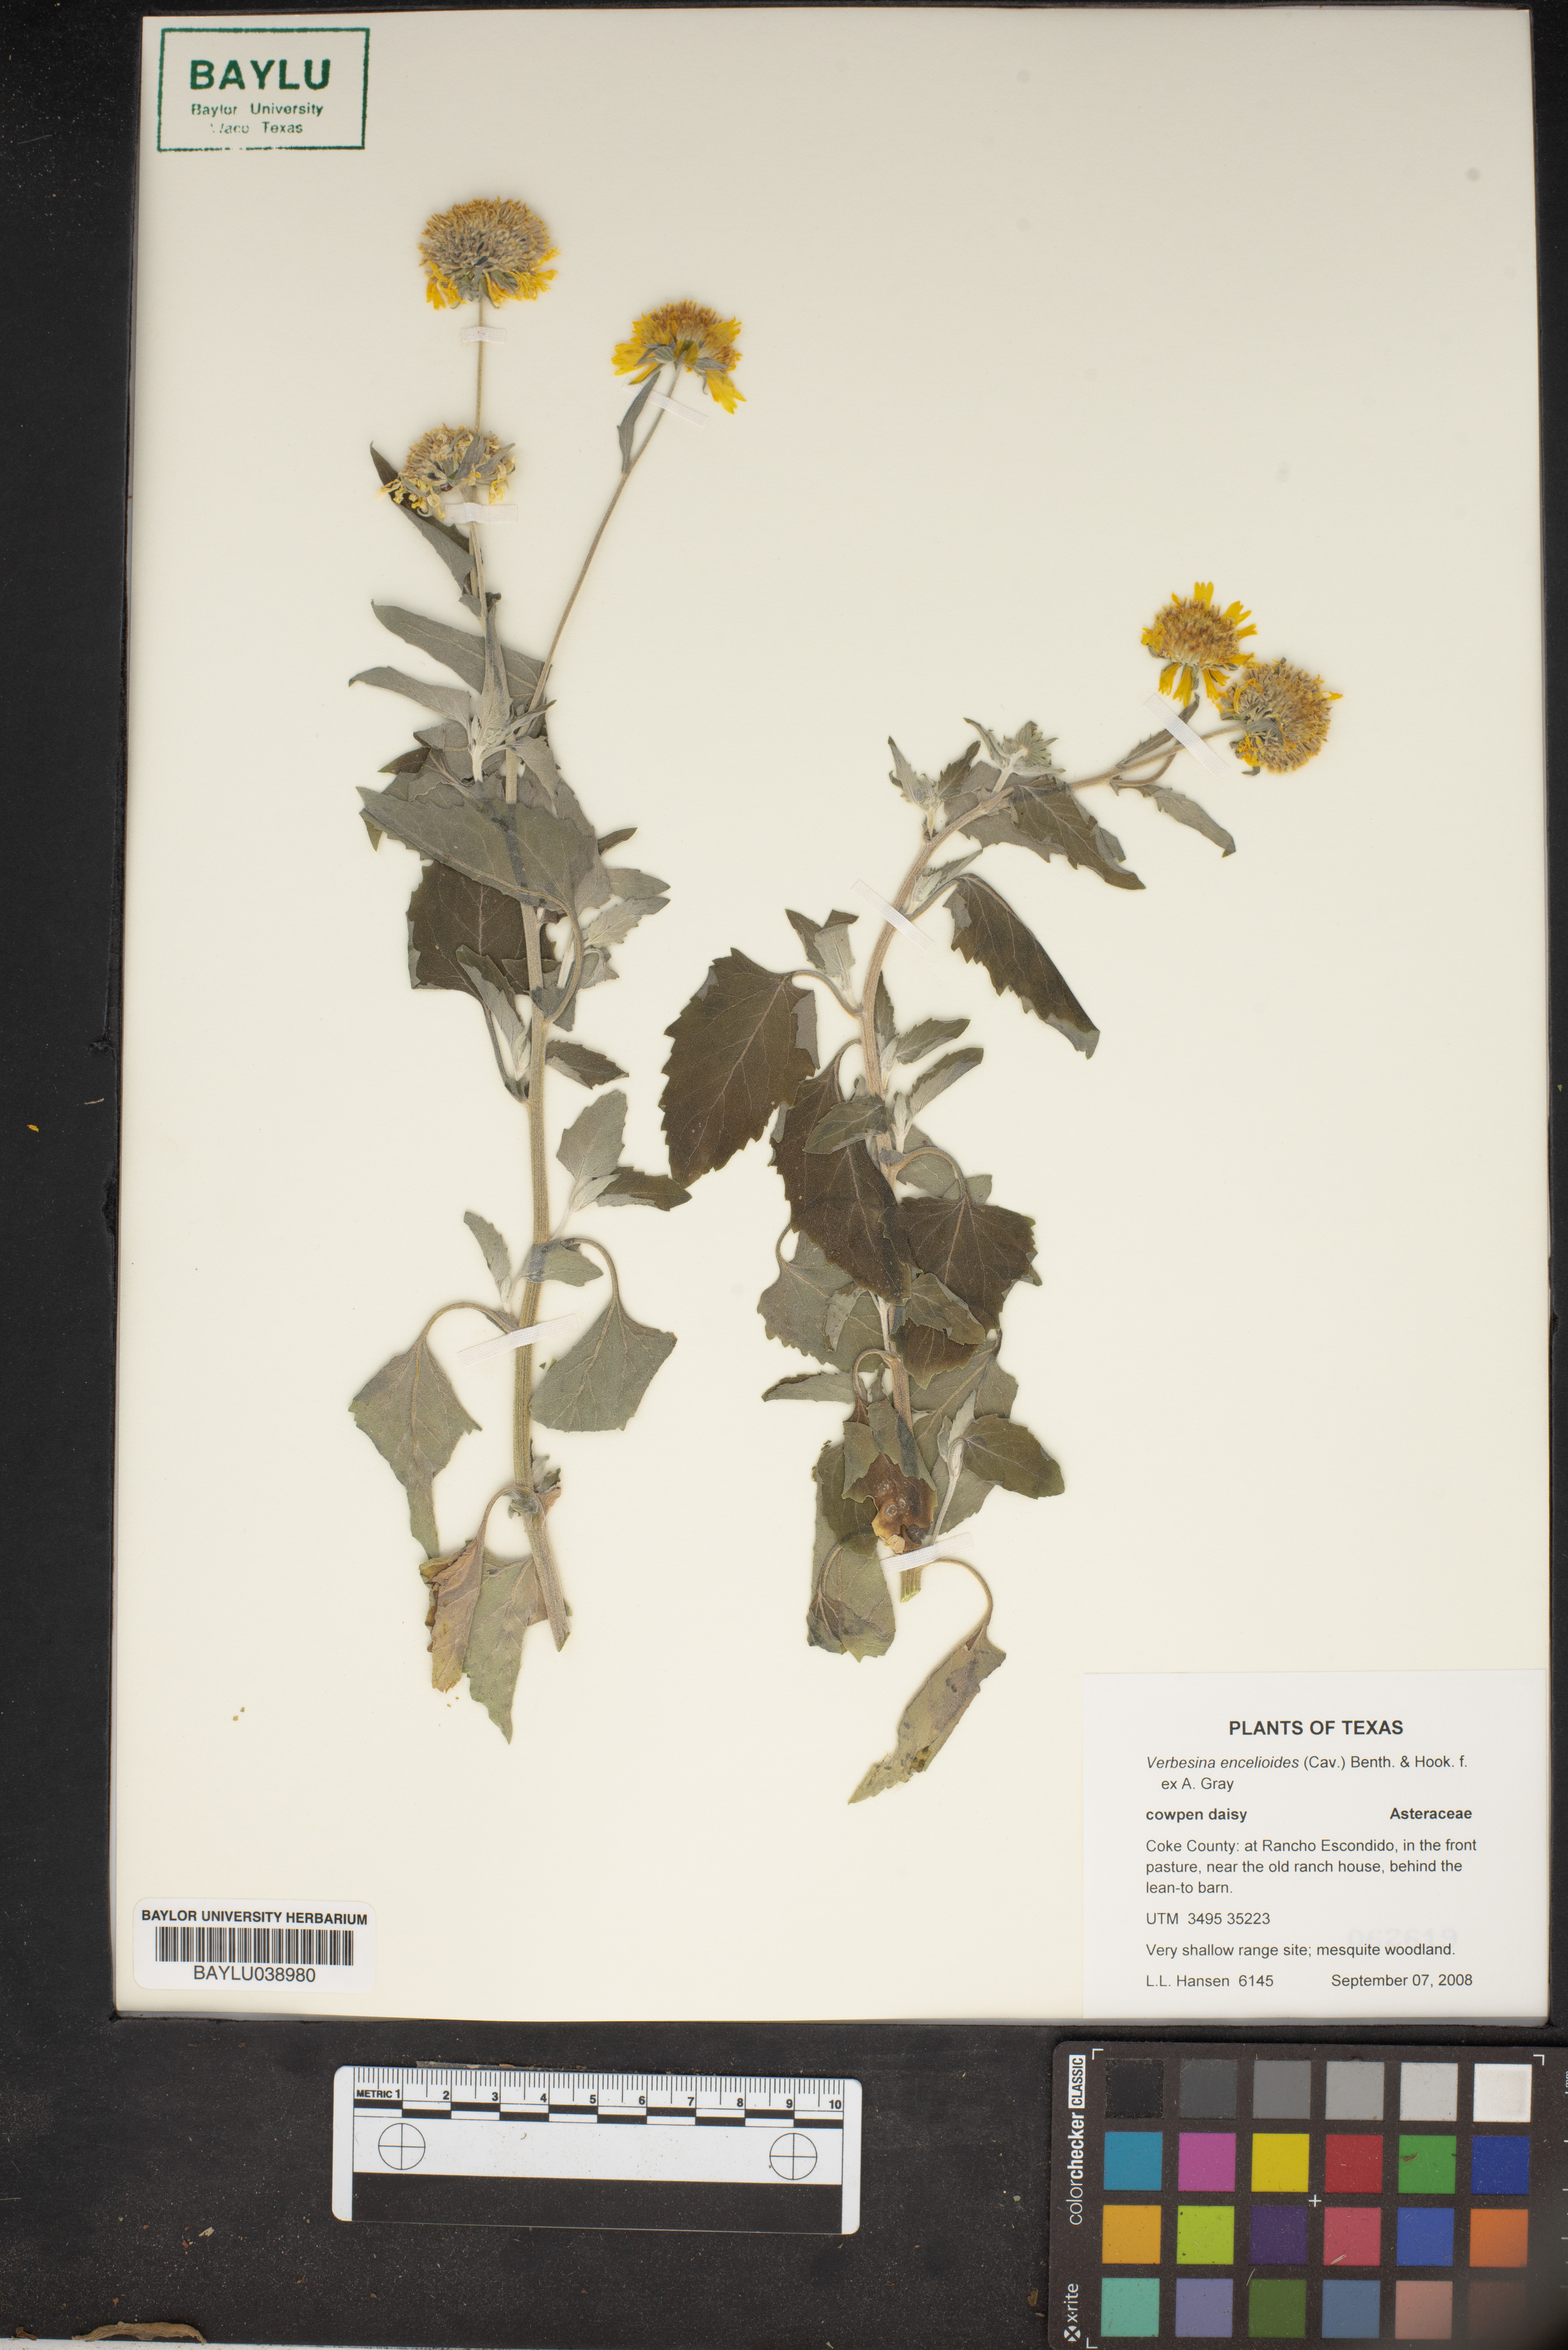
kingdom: Plantae
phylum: Tracheophyta
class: Magnoliopsida
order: Asterales
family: Asteraceae
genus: Verbesina
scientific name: Verbesina encelioides
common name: Golden crownbeard
